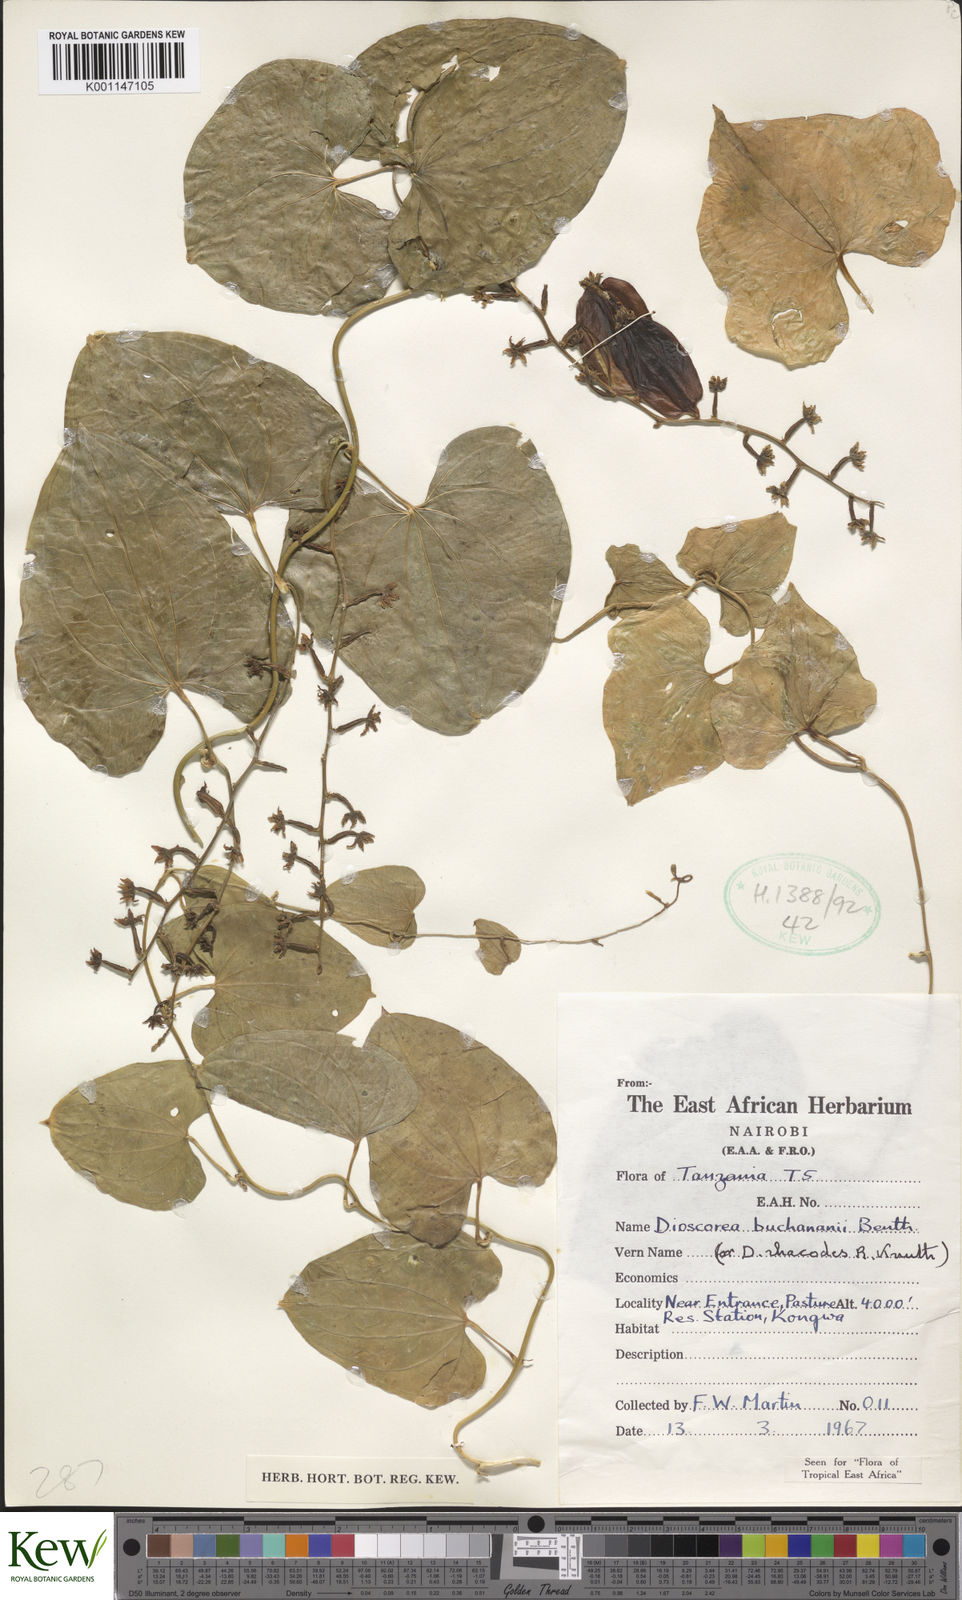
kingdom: Plantae
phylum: Tracheophyta
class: Liliopsida
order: Dioscoreales
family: Dioscoreaceae
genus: Dioscorea
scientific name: Dioscorea buchananii
